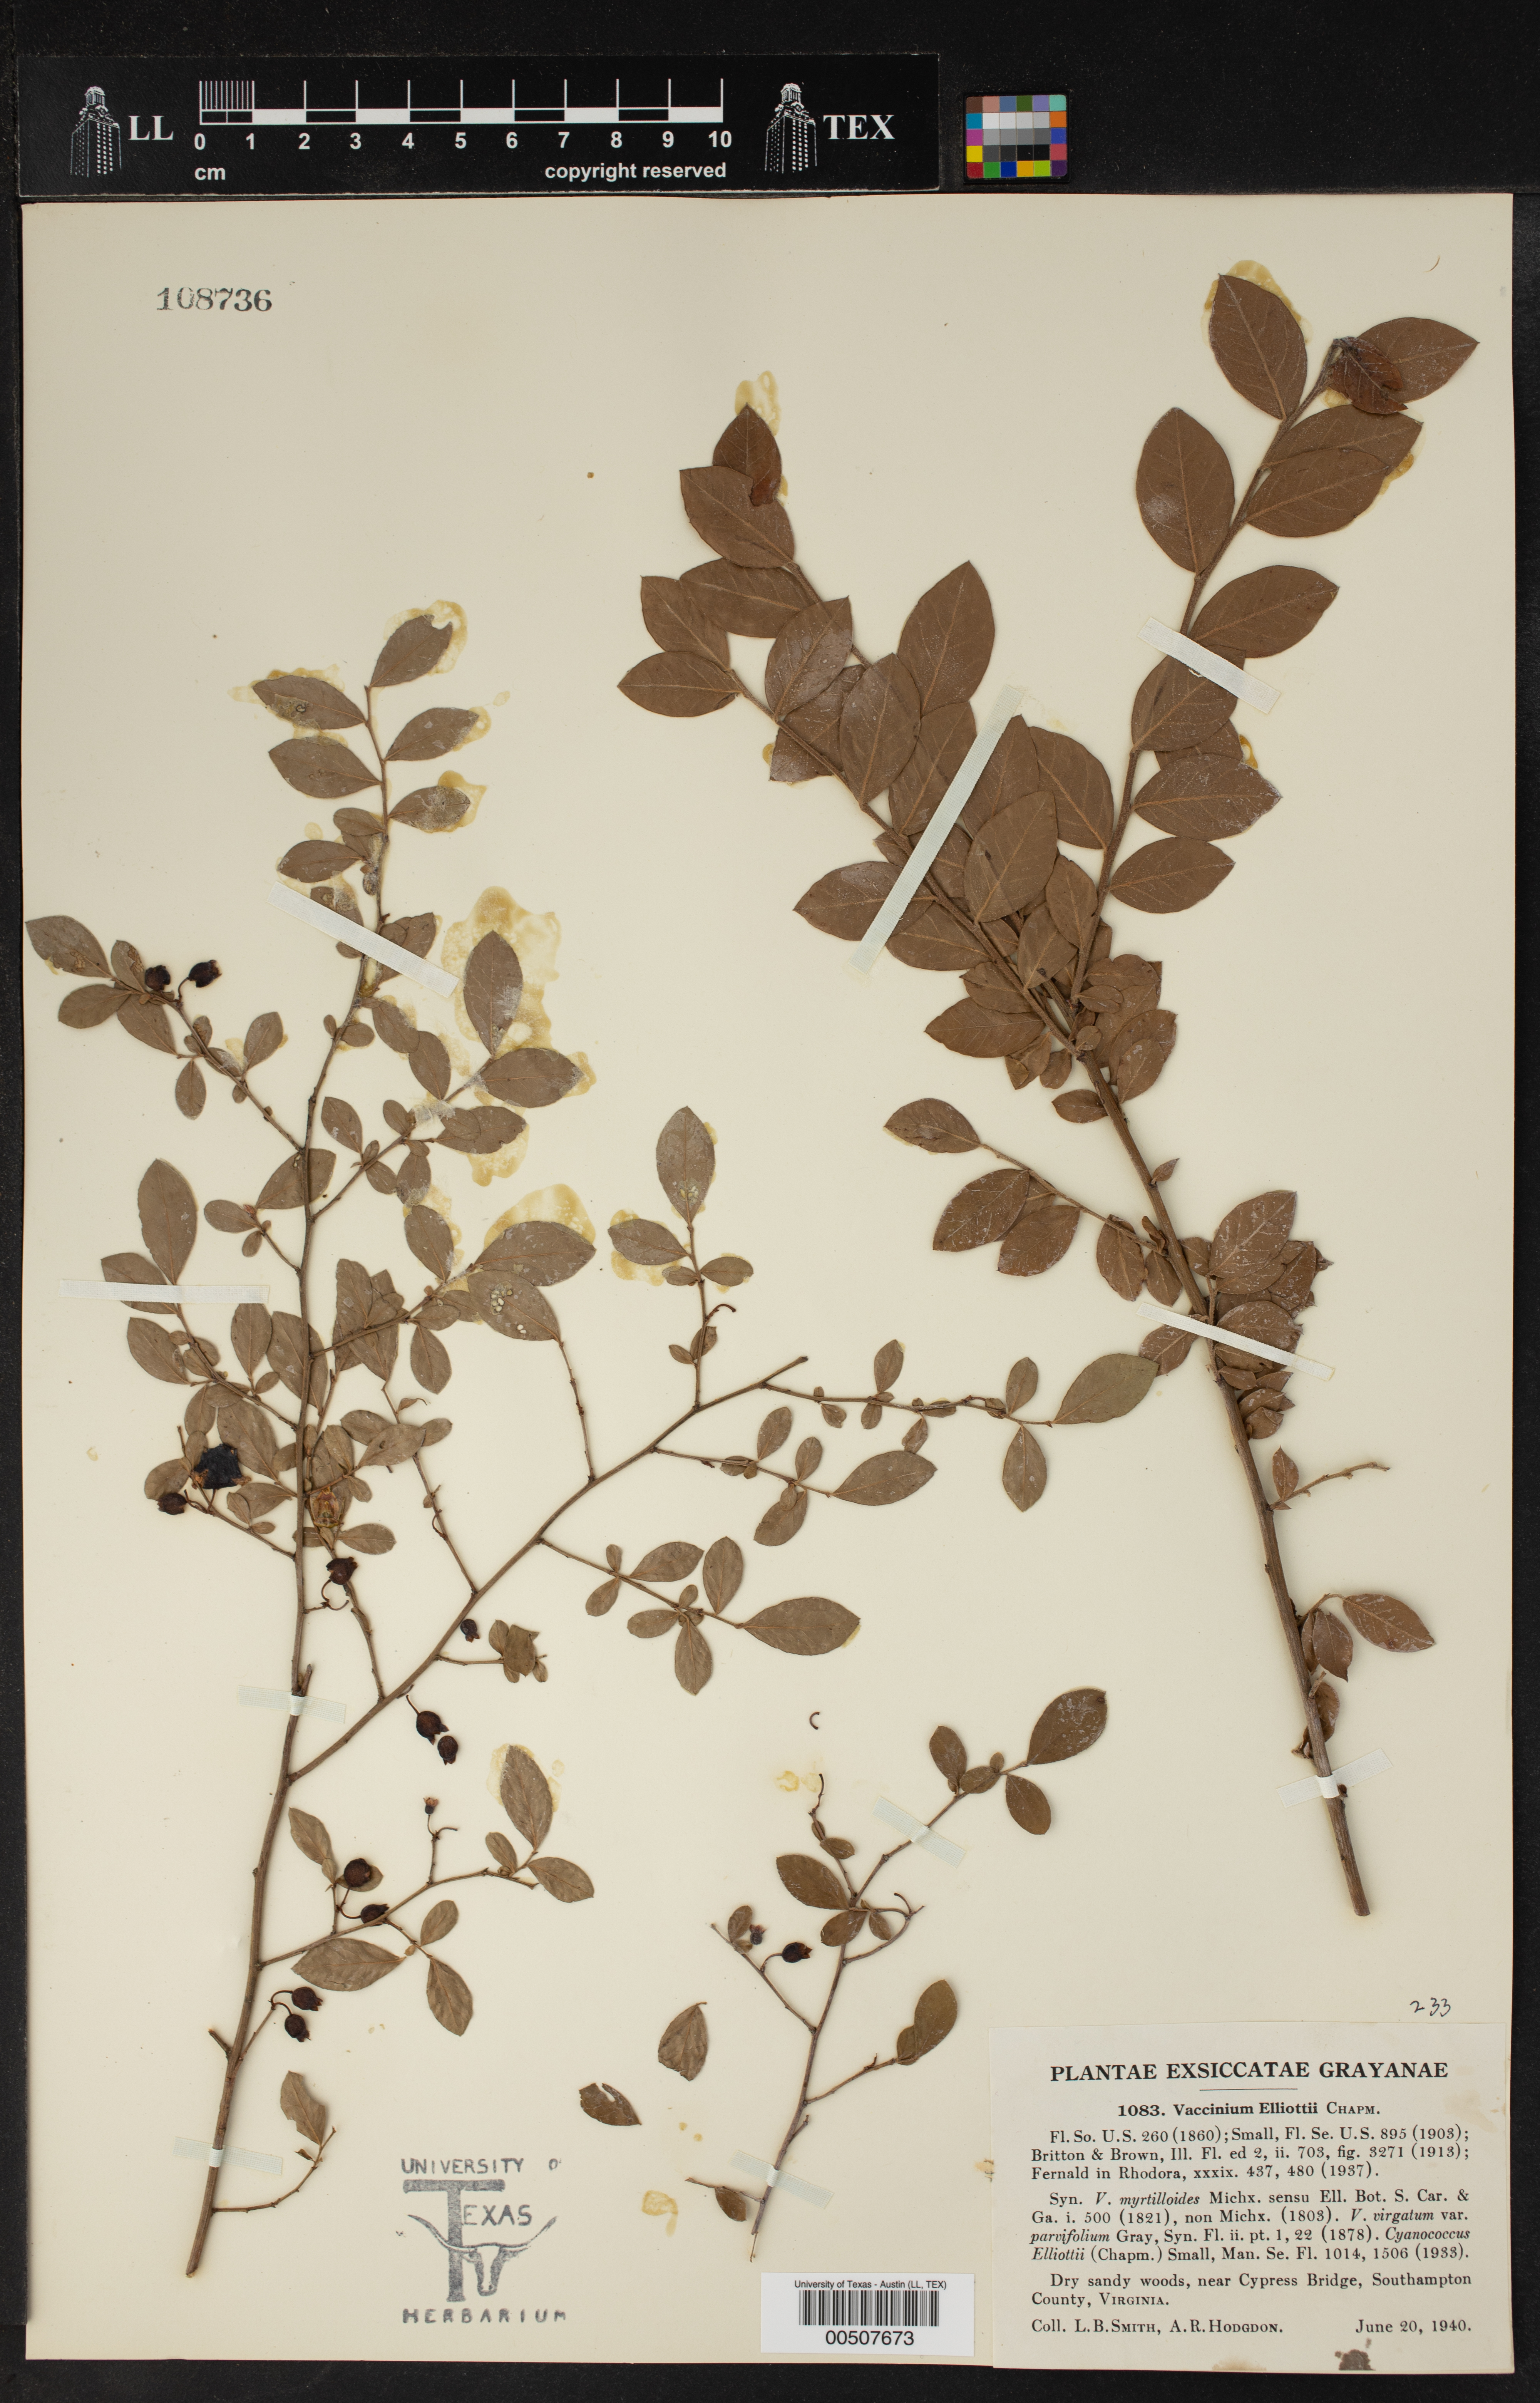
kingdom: Plantae
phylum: Tracheophyta
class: Magnoliopsida
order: Ericales
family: Ericaceae
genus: Vaccinium
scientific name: Vaccinium corymbosum
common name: Blueberry
